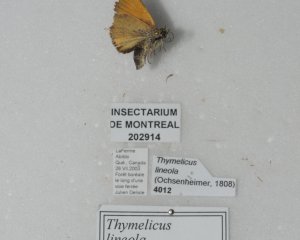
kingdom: Animalia
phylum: Arthropoda
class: Insecta
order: Lepidoptera
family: Hesperiidae
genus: Thymelicus
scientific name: Thymelicus lineola
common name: European Skipper
